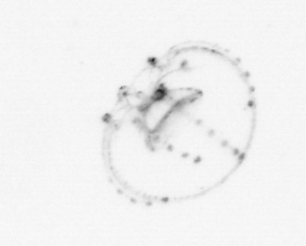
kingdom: Animalia
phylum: Cnidaria
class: Hydrozoa
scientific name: Hydrozoa
